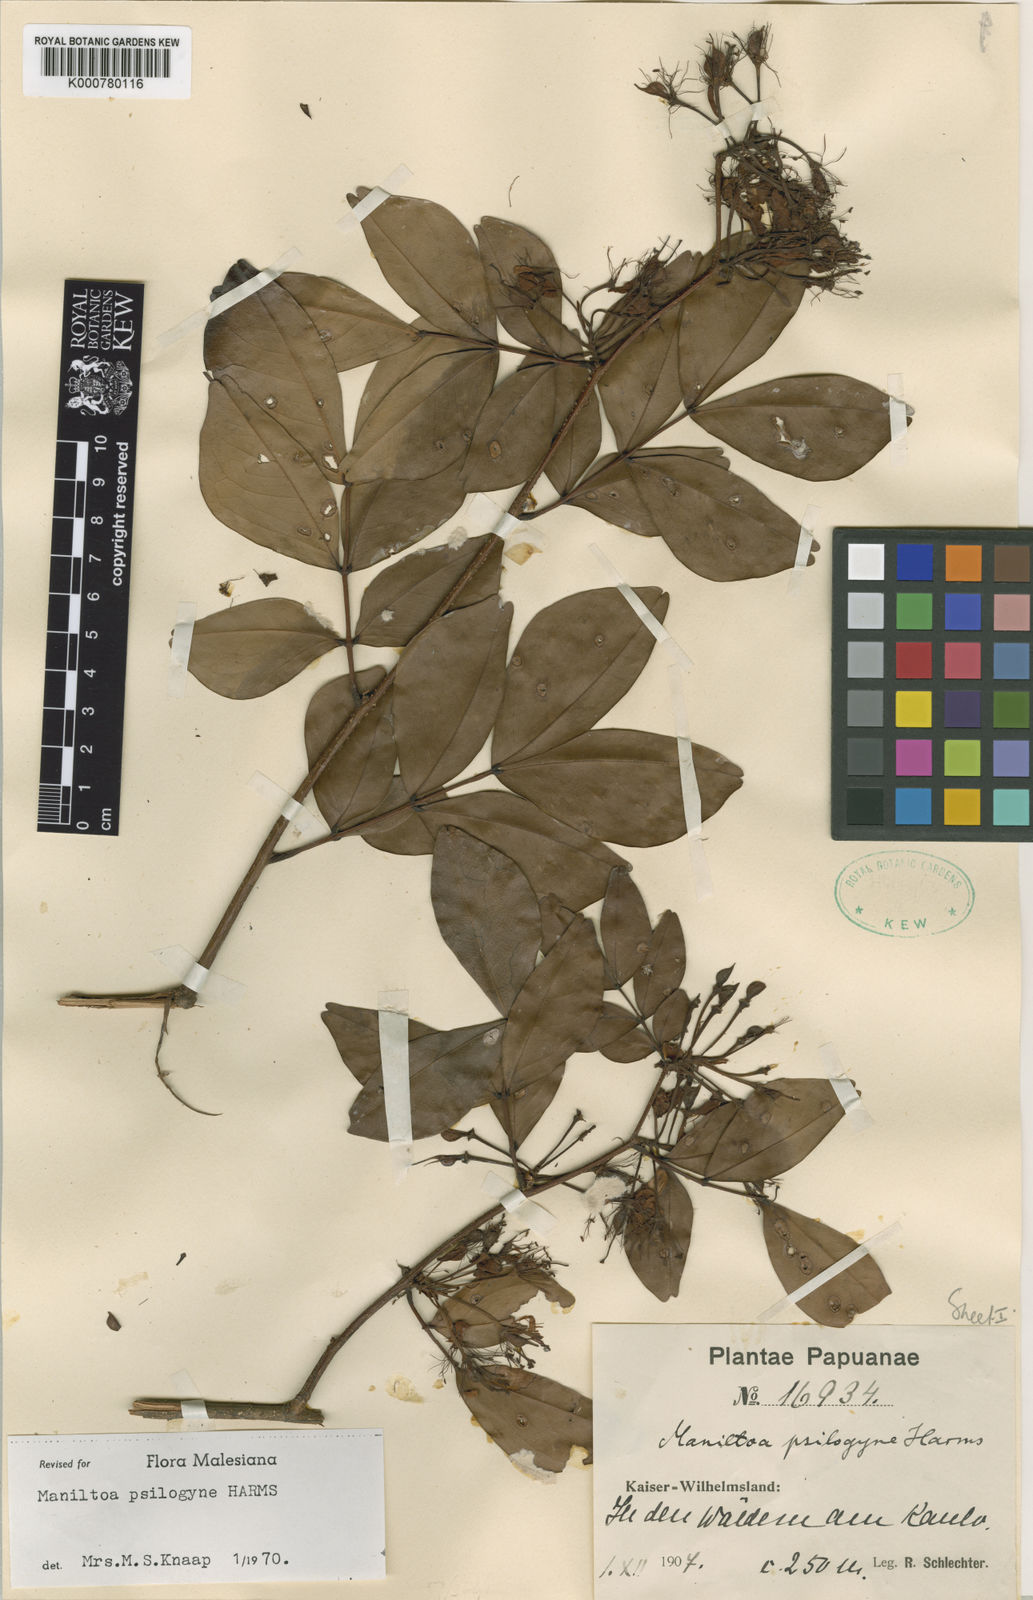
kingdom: Plantae
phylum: Tracheophyta
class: Magnoliopsida
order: Fabales
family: Fabaceae
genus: Cynometra
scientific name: Cynometra psilogyne
